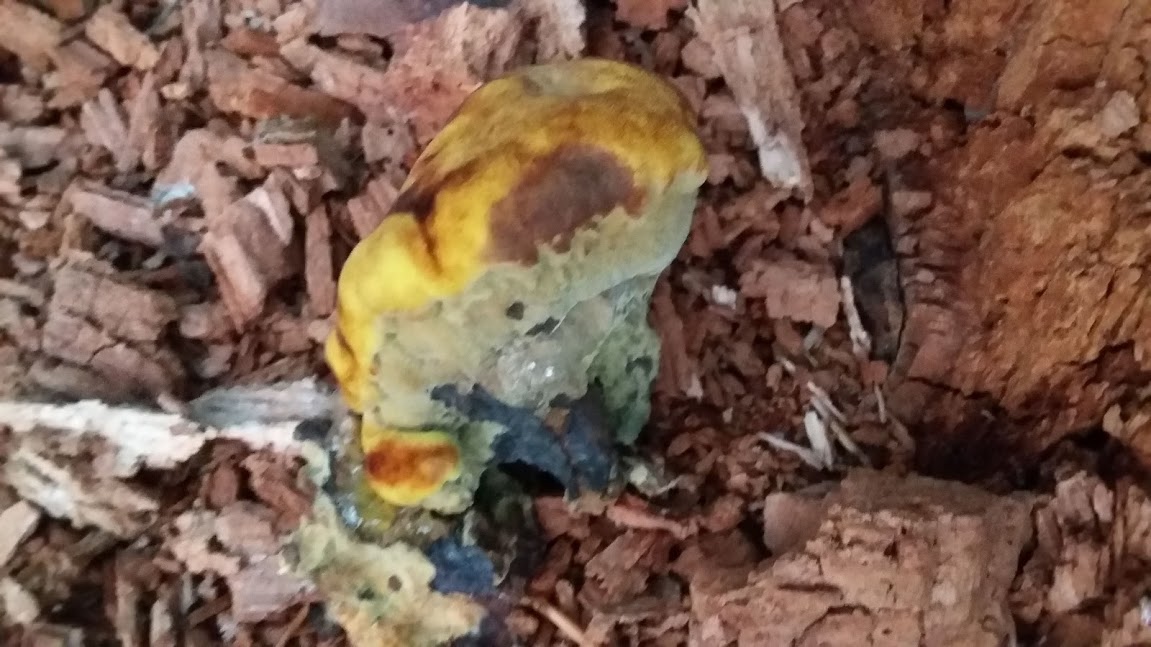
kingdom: Fungi
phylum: Basidiomycota
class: Agaricomycetes
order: Polyporales
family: Laetiporaceae
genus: Phaeolus
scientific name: Phaeolus schweinitzii
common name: brunporesvamp
